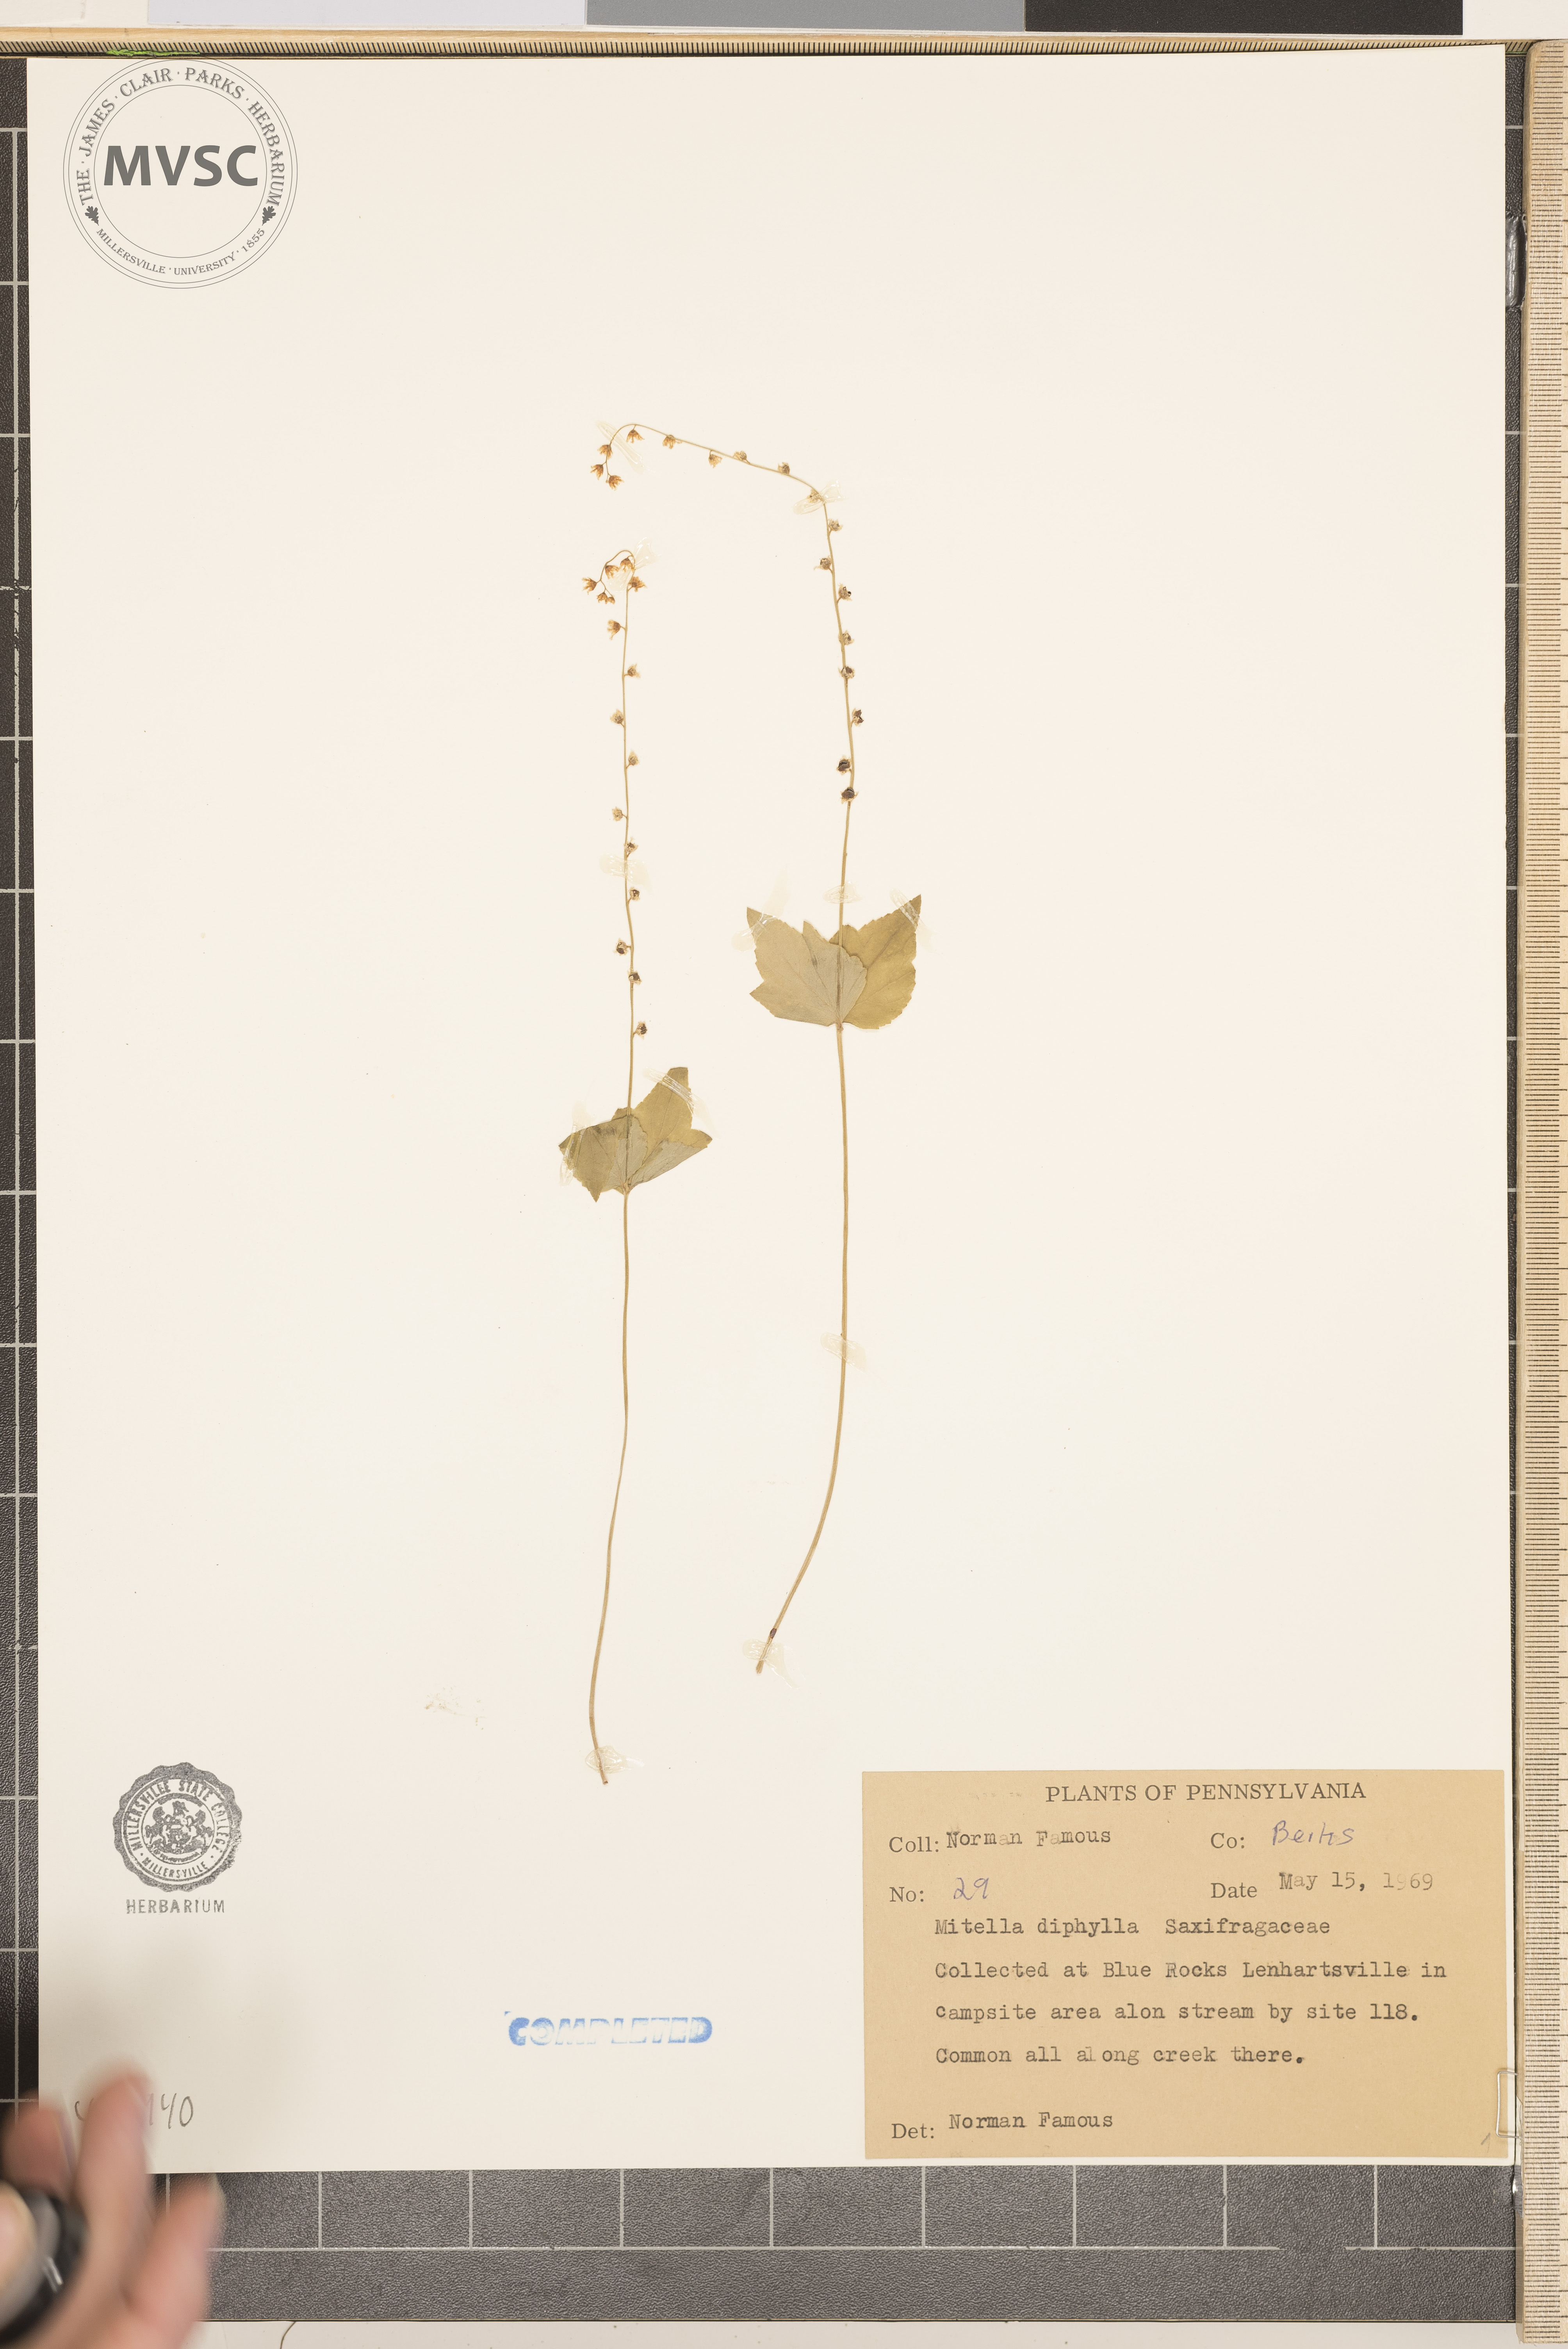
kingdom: Plantae
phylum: Tracheophyta
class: Magnoliopsida
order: Saxifragales
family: Saxifragaceae
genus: Mitella
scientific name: Mitella diphylla
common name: Coolwort
